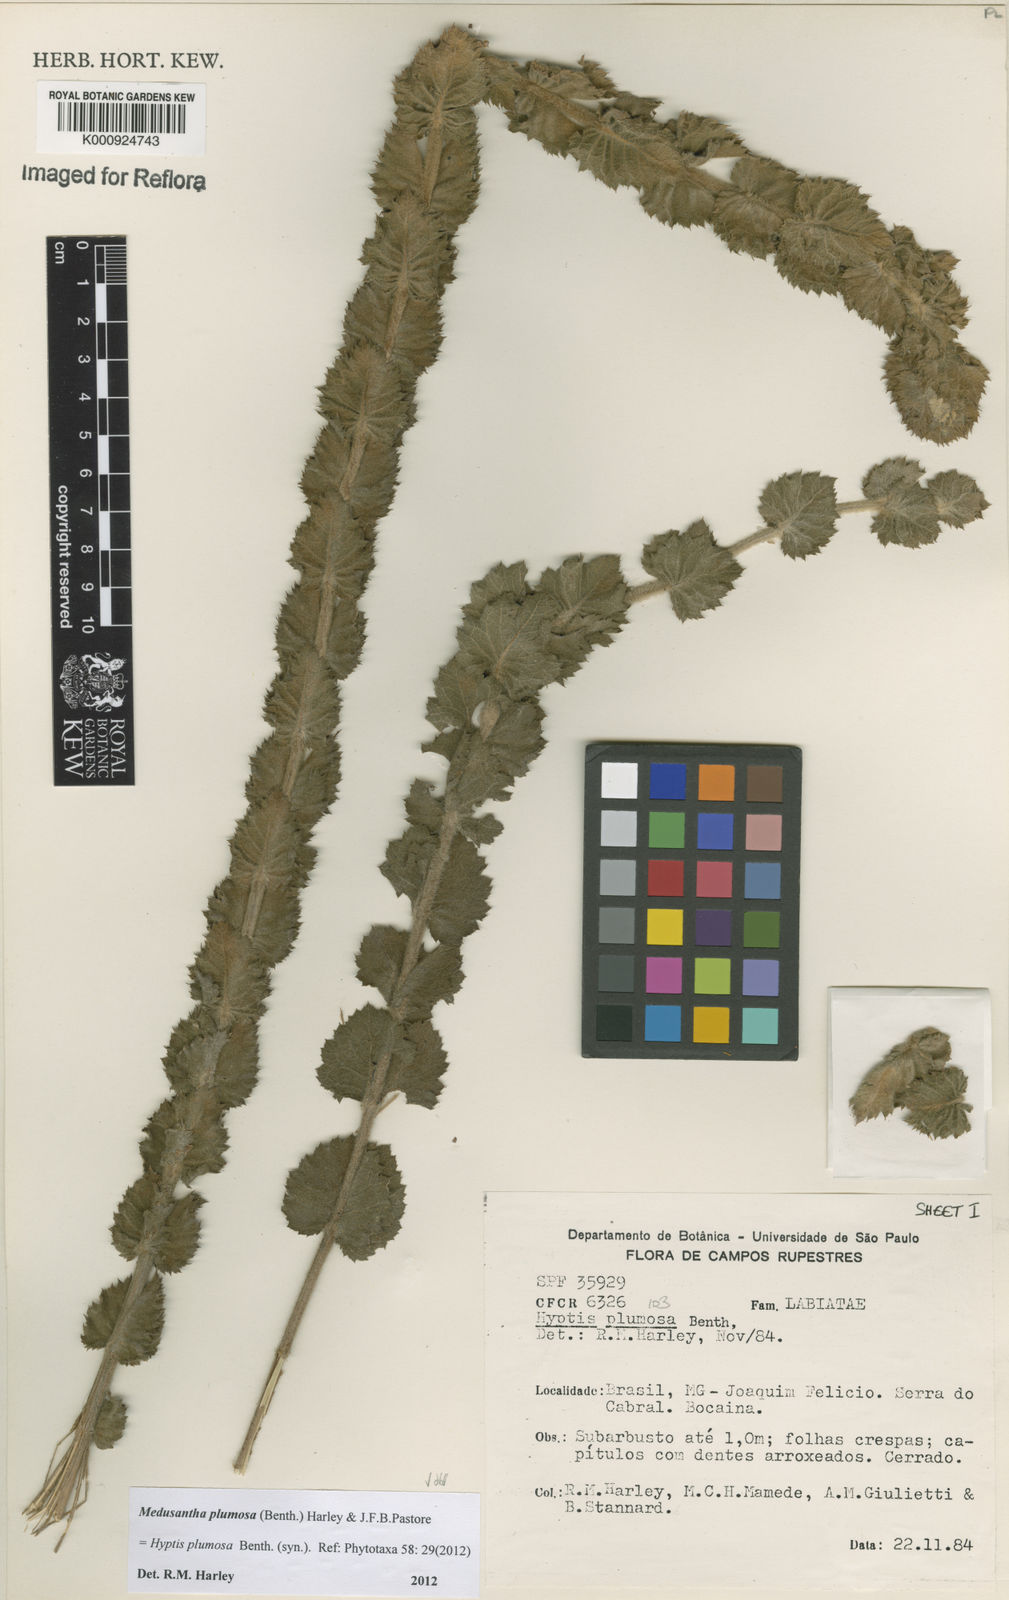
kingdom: Plantae
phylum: Tracheophyta
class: Magnoliopsida
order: Lamiales
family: Lamiaceae
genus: Medusantha
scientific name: Medusantha plumosa
